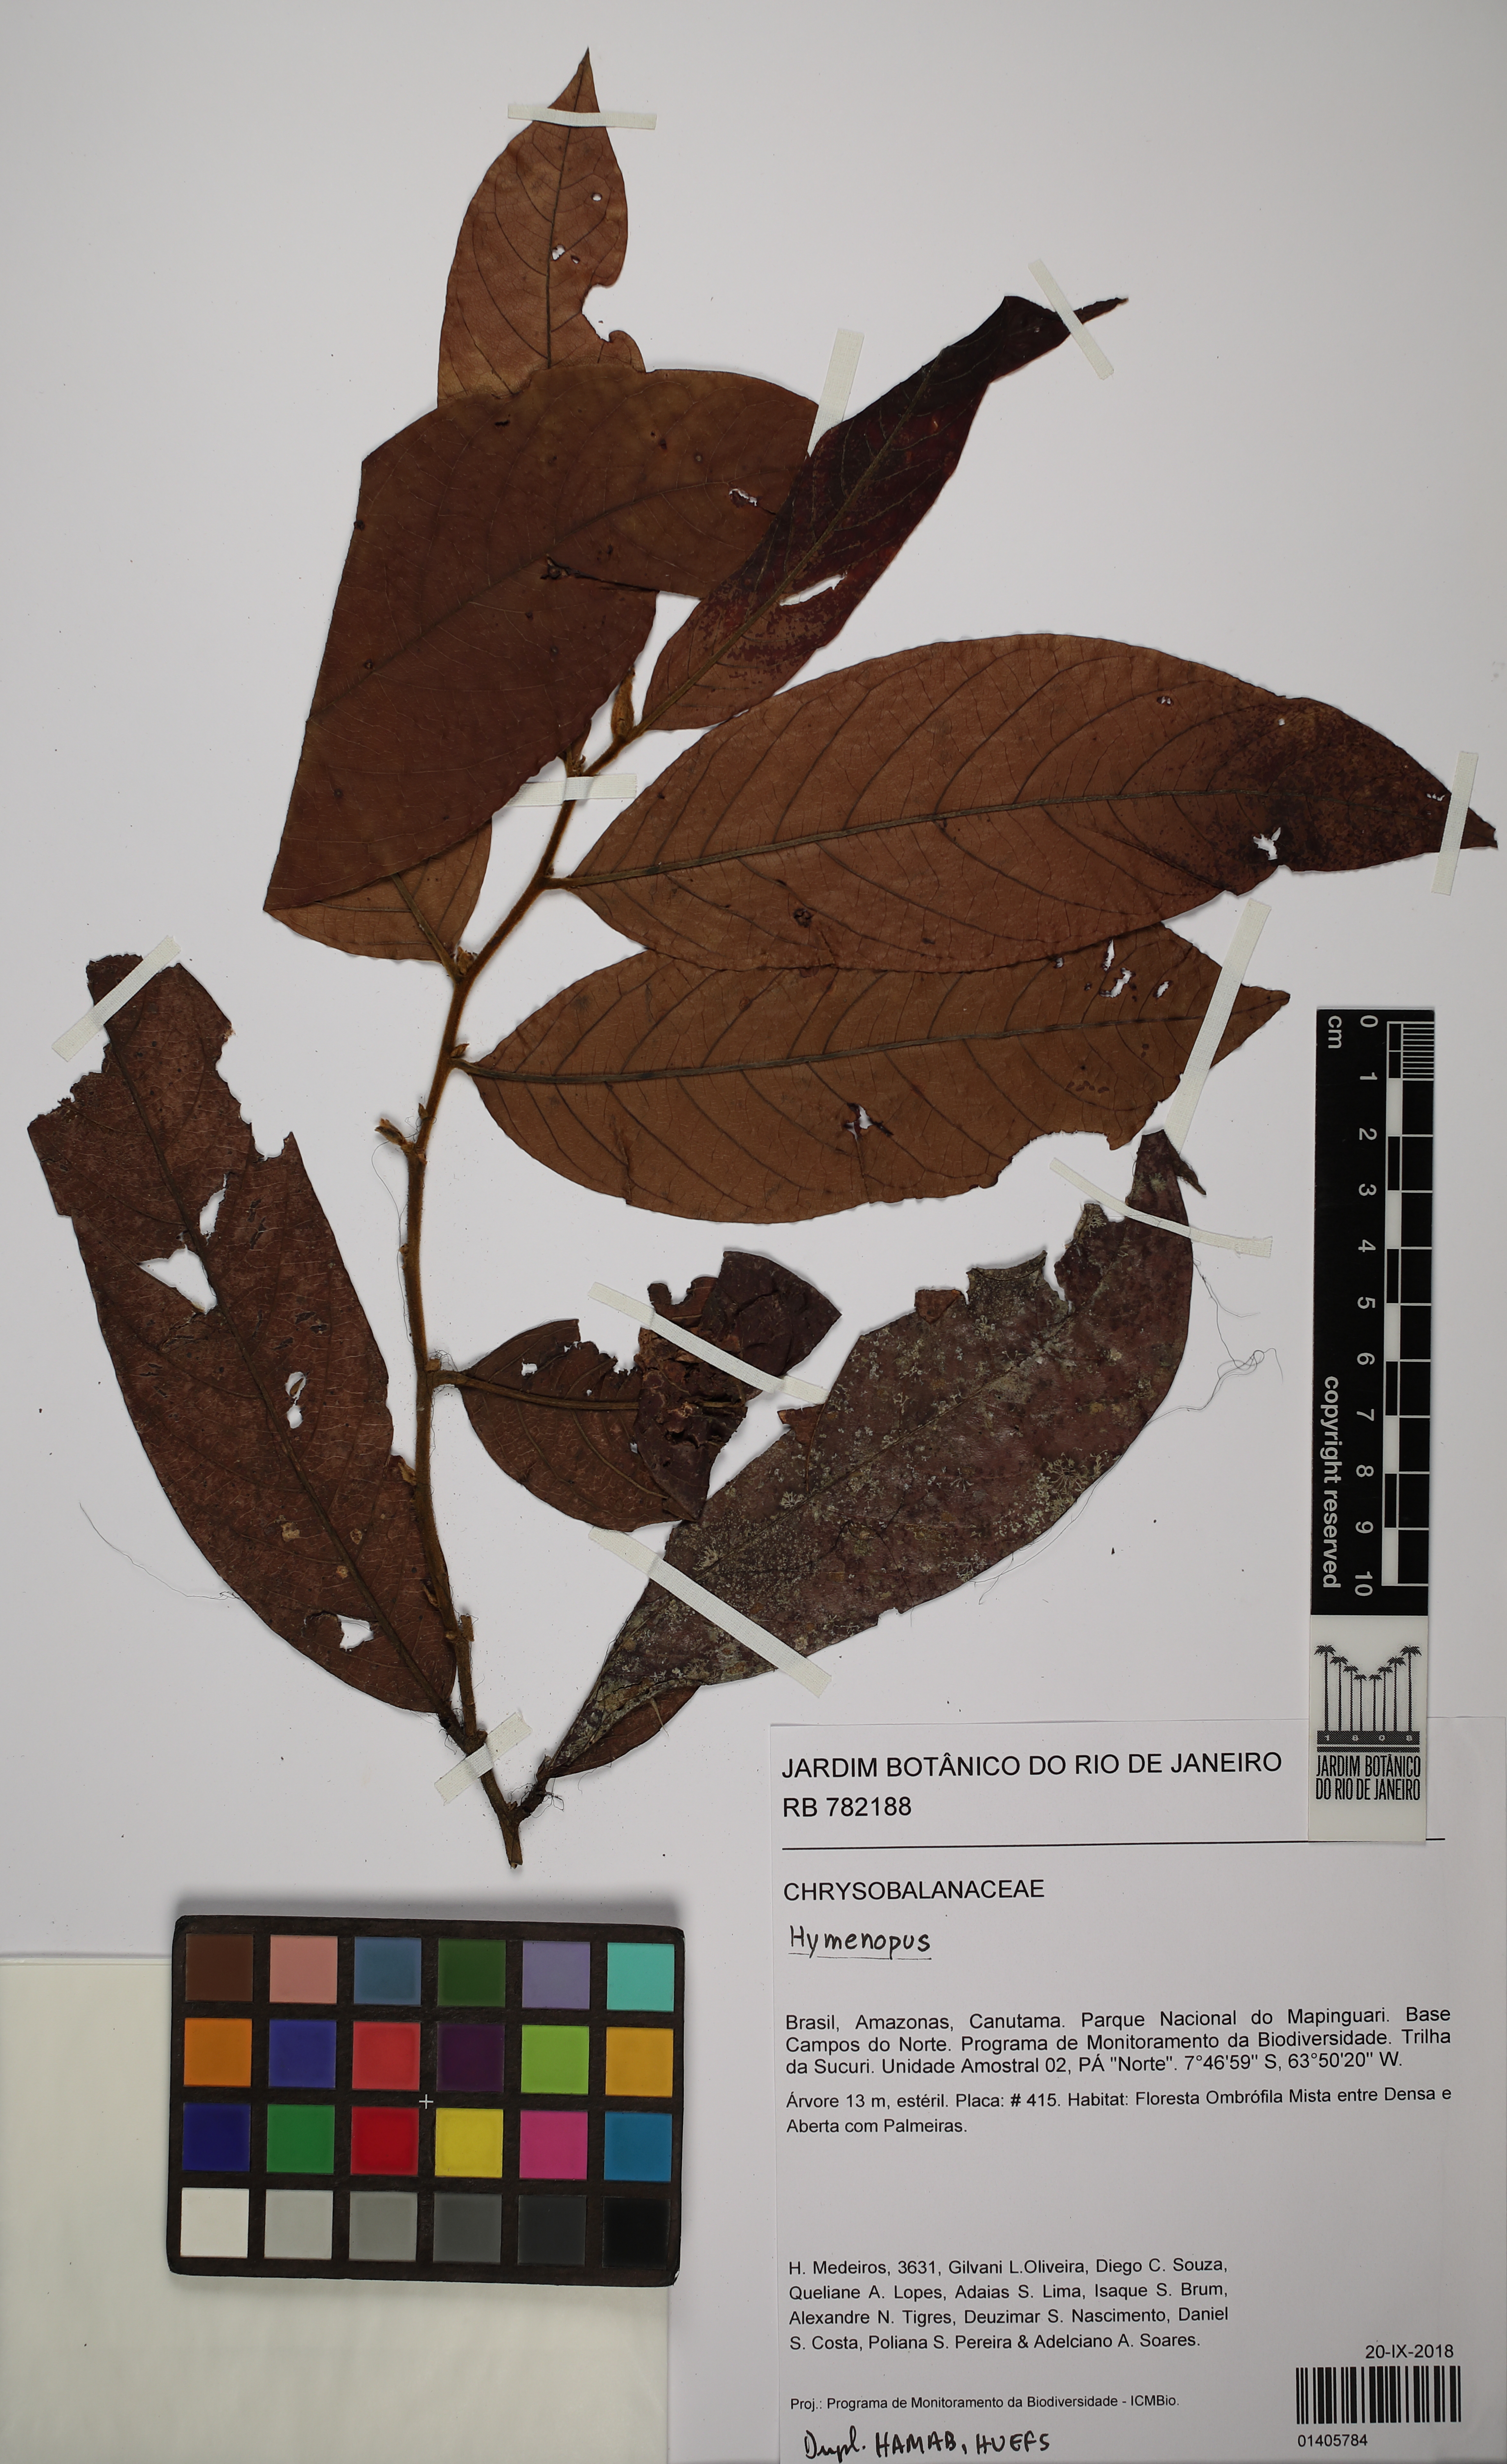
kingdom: Plantae
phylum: Tracheophyta
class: Magnoliopsida
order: Malpighiales
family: Chrysobalanaceae
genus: Hymenopus
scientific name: Hymenopus
